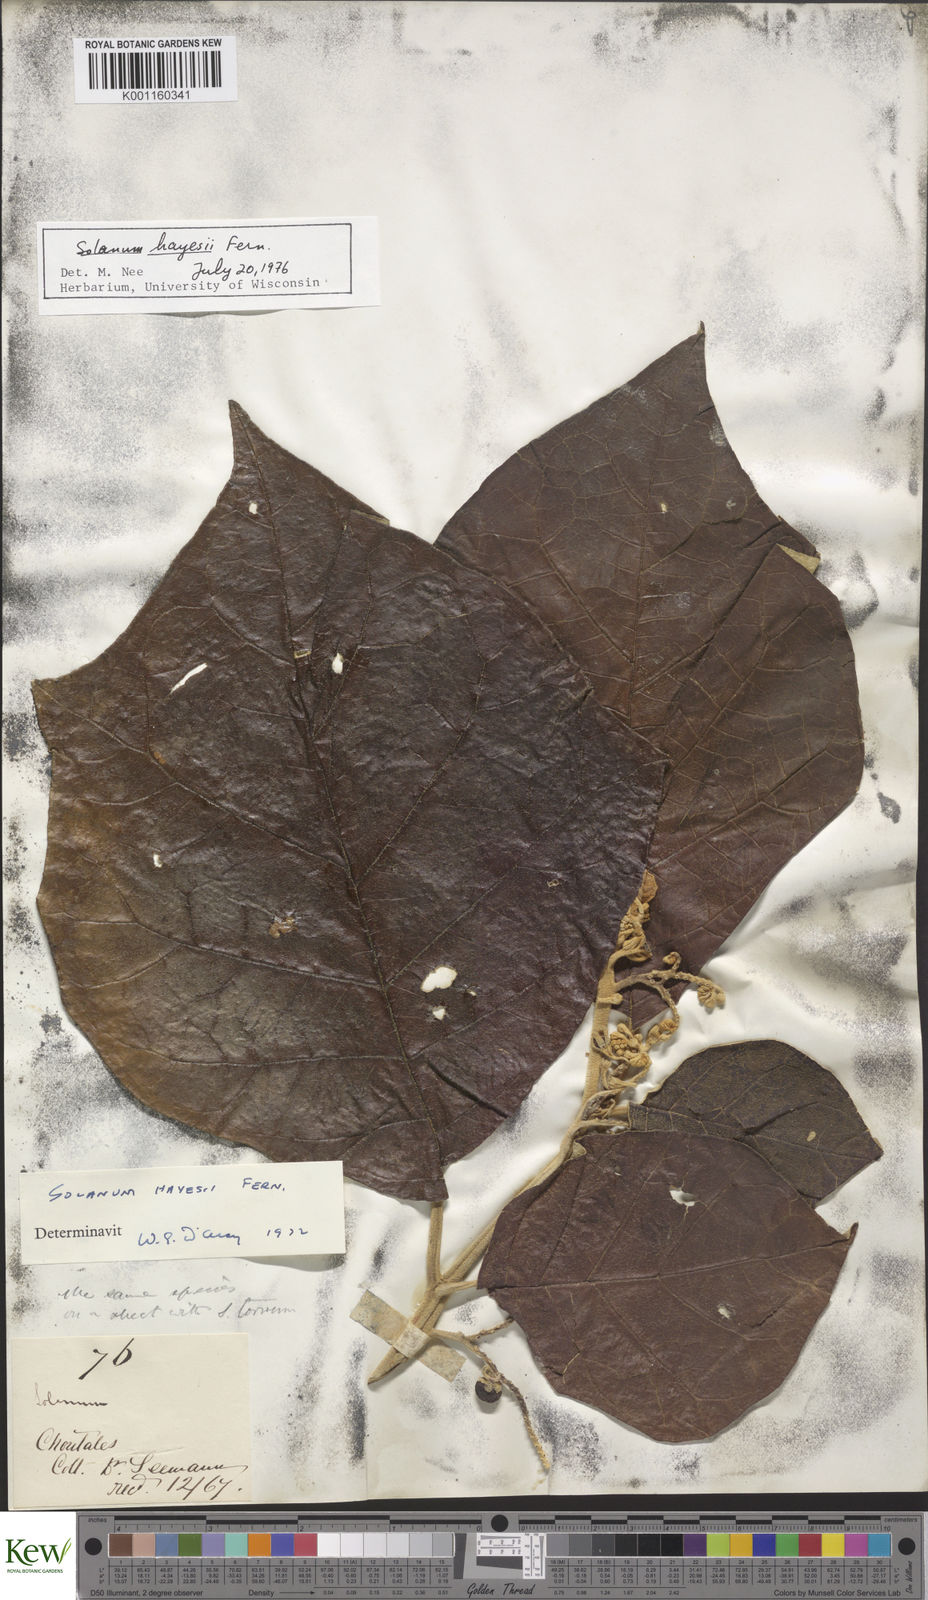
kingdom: Plantae
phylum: Tracheophyta
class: Magnoliopsida
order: Solanales
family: Solanaceae
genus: Solanum
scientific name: Solanum hayesii
